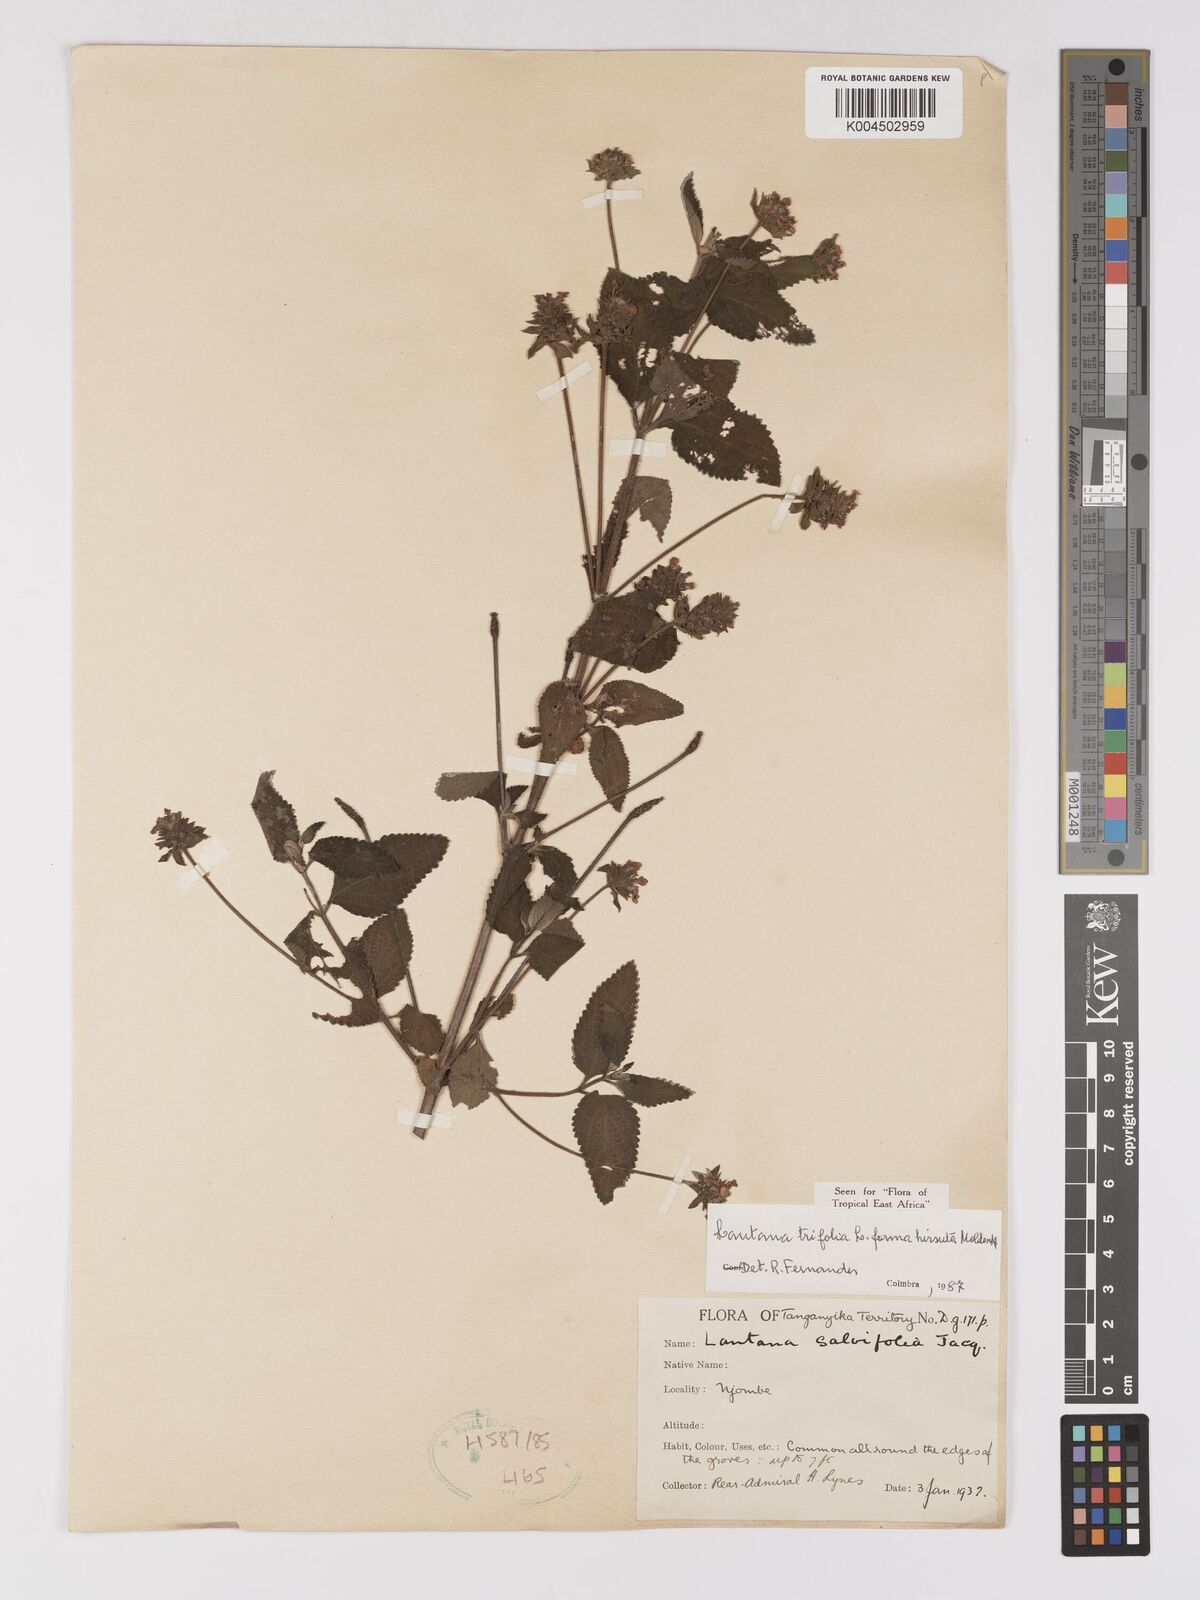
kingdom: Plantae
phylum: Tracheophyta
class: Magnoliopsida
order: Lamiales
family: Verbenaceae
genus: Lantana
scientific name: Lantana trifolia
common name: Sweet-sage
